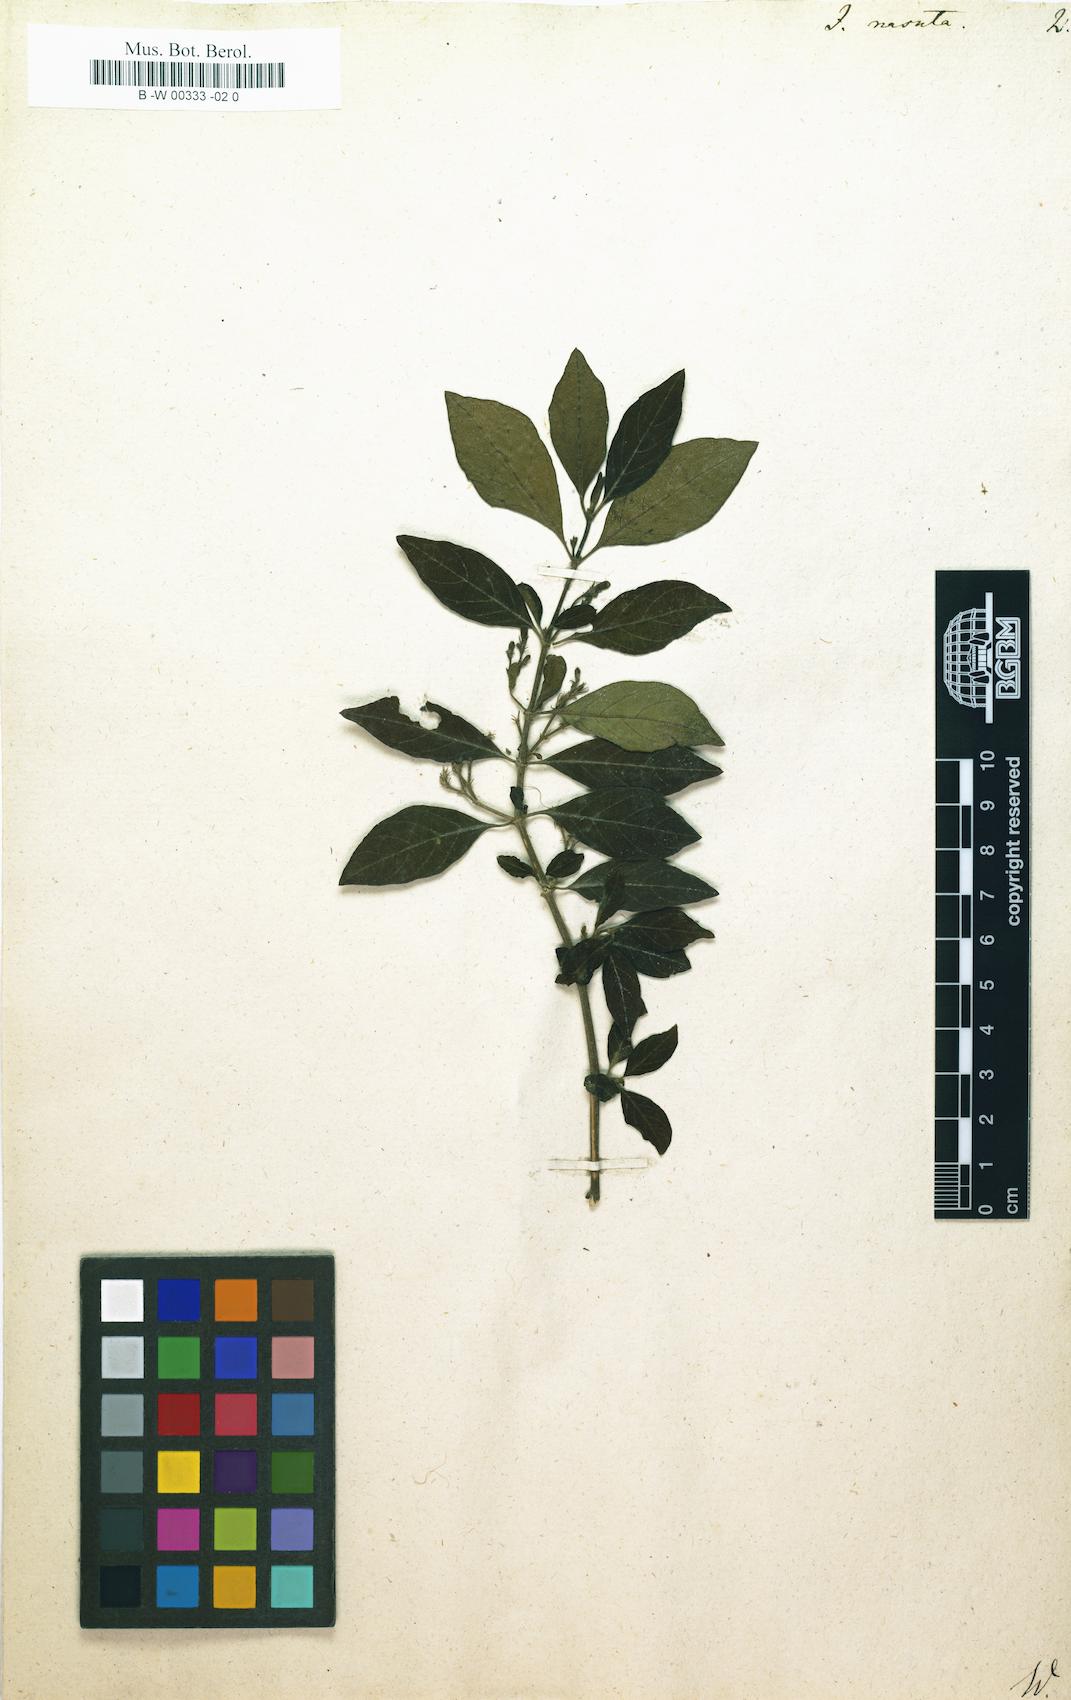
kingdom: Plantae
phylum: Tracheophyta
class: Magnoliopsida
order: Lamiales
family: Acanthaceae
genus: Rhinacanthus
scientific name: Rhinacanthus nasutus
